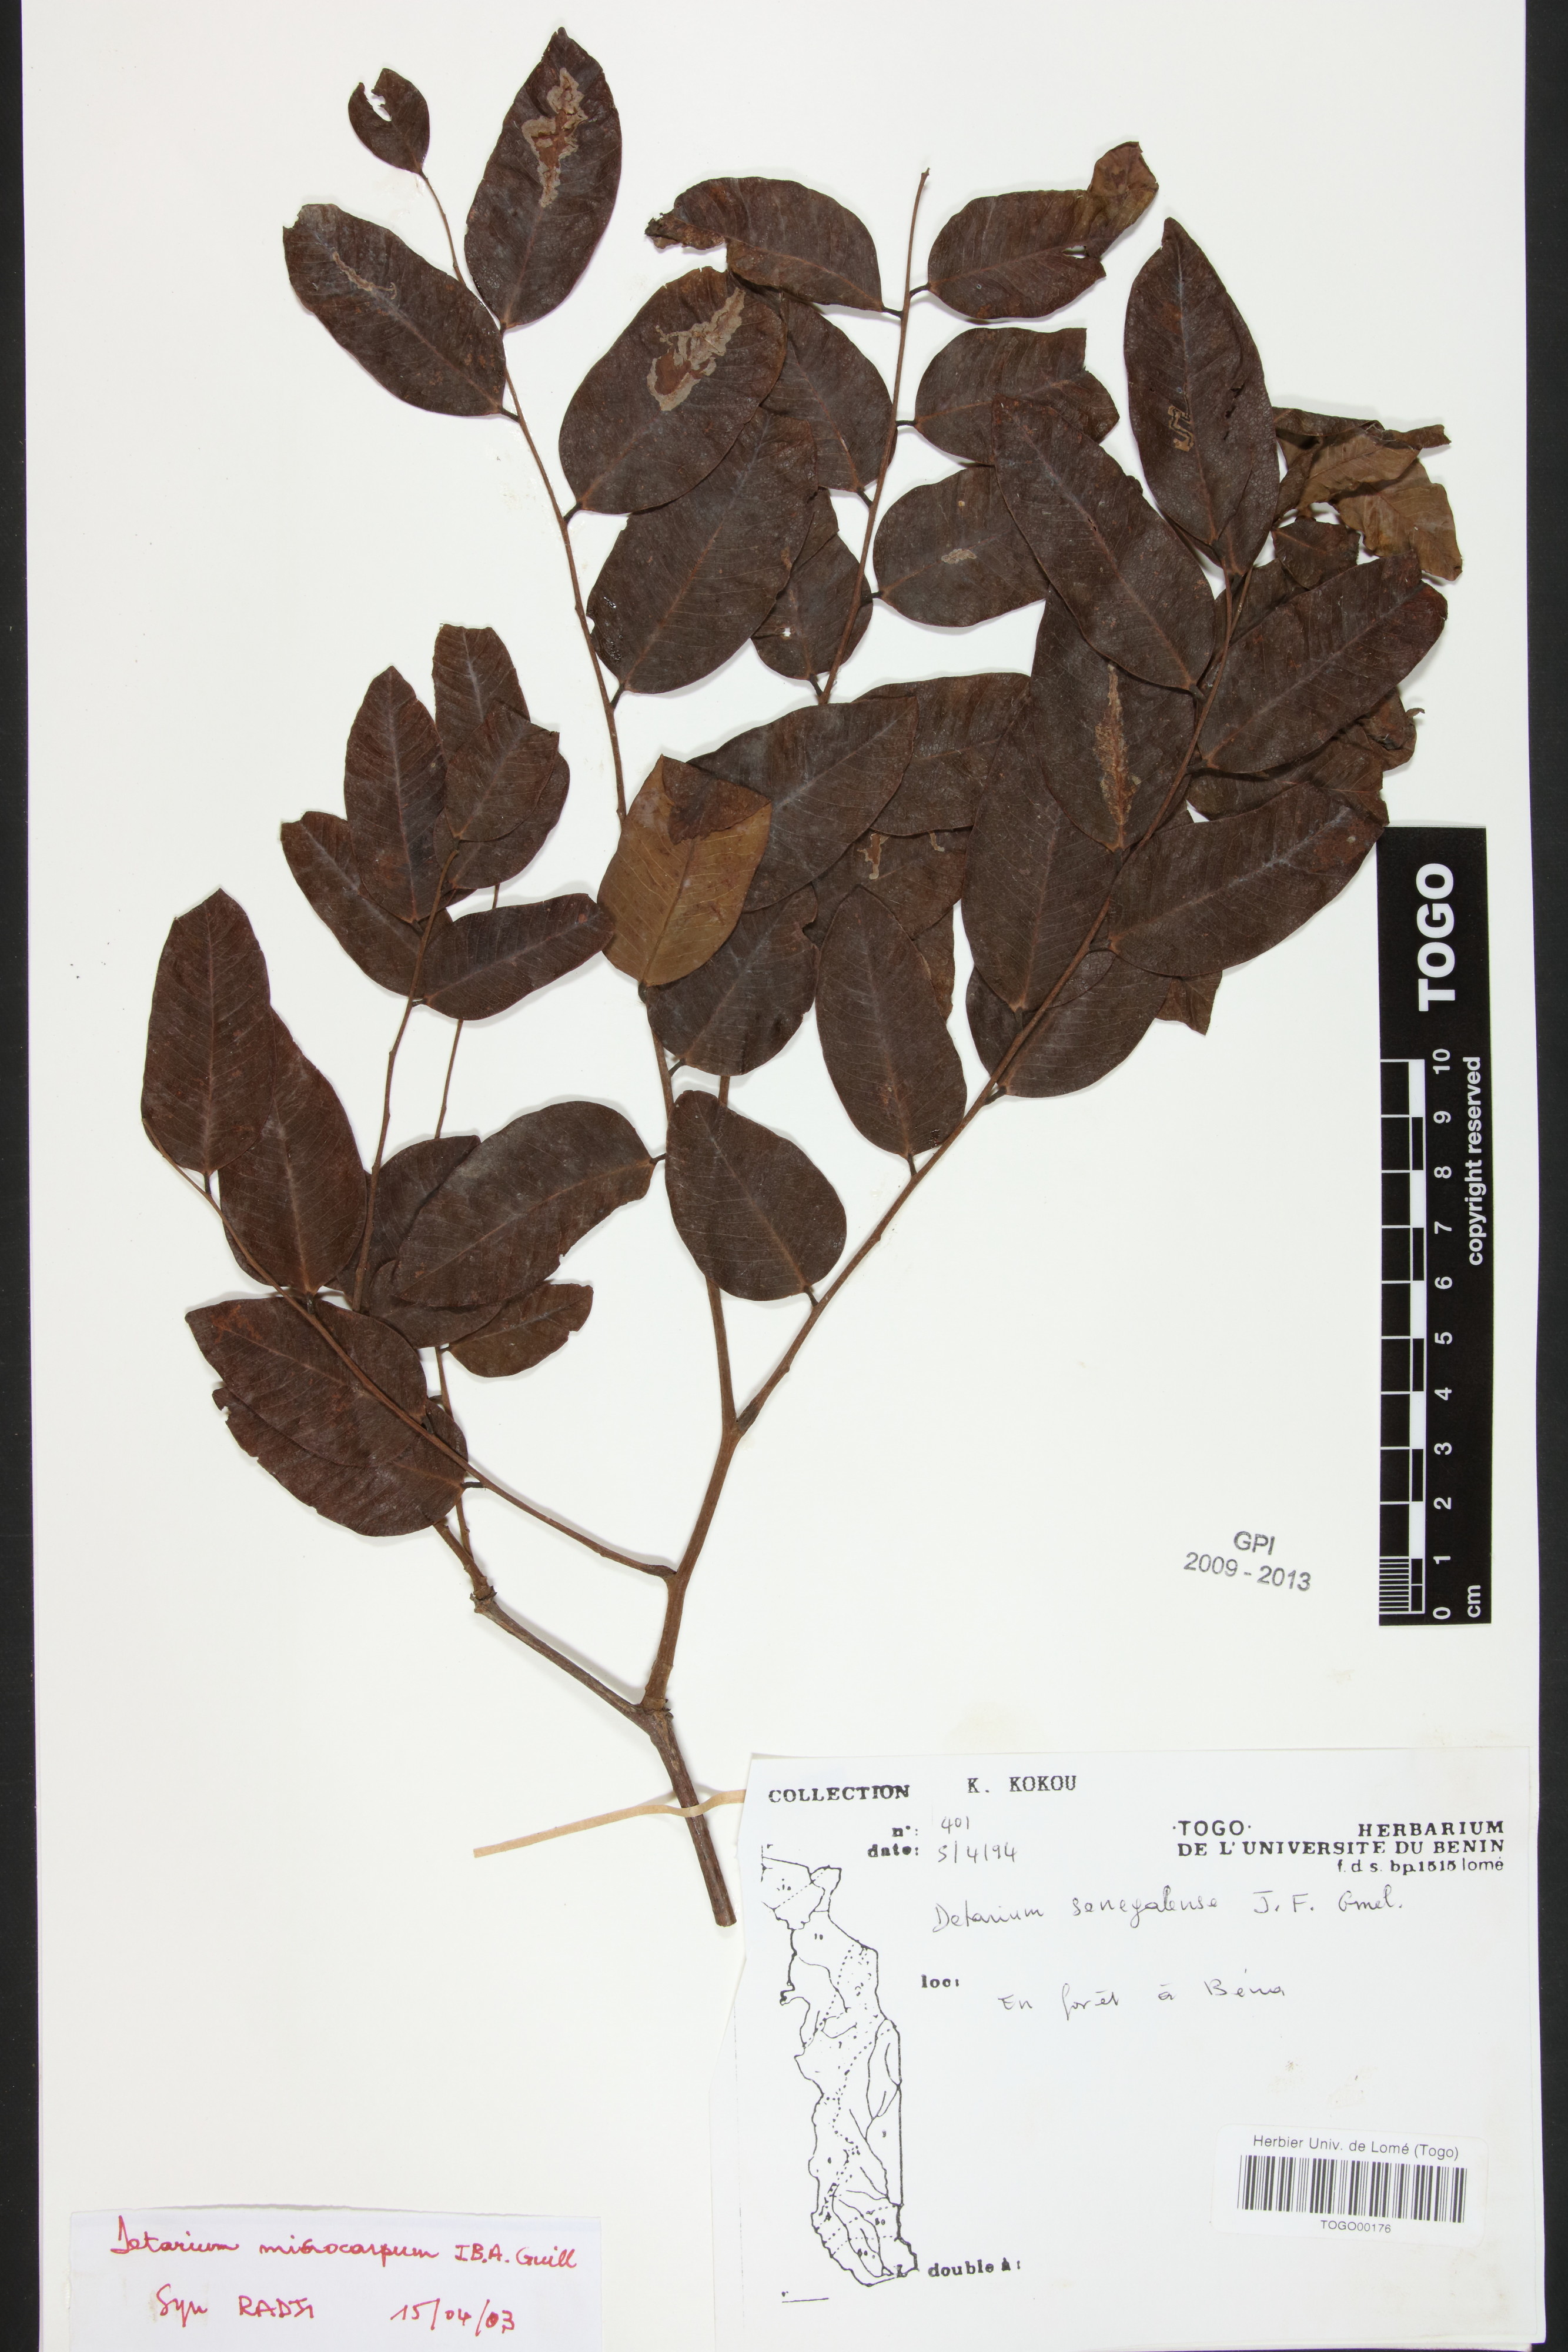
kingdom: Plantae
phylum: Tracheophyta
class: Magnoliopsida
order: Fabales
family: Fabaceae
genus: Detarium
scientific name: Detarium microcarpum
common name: Sweet dattock
